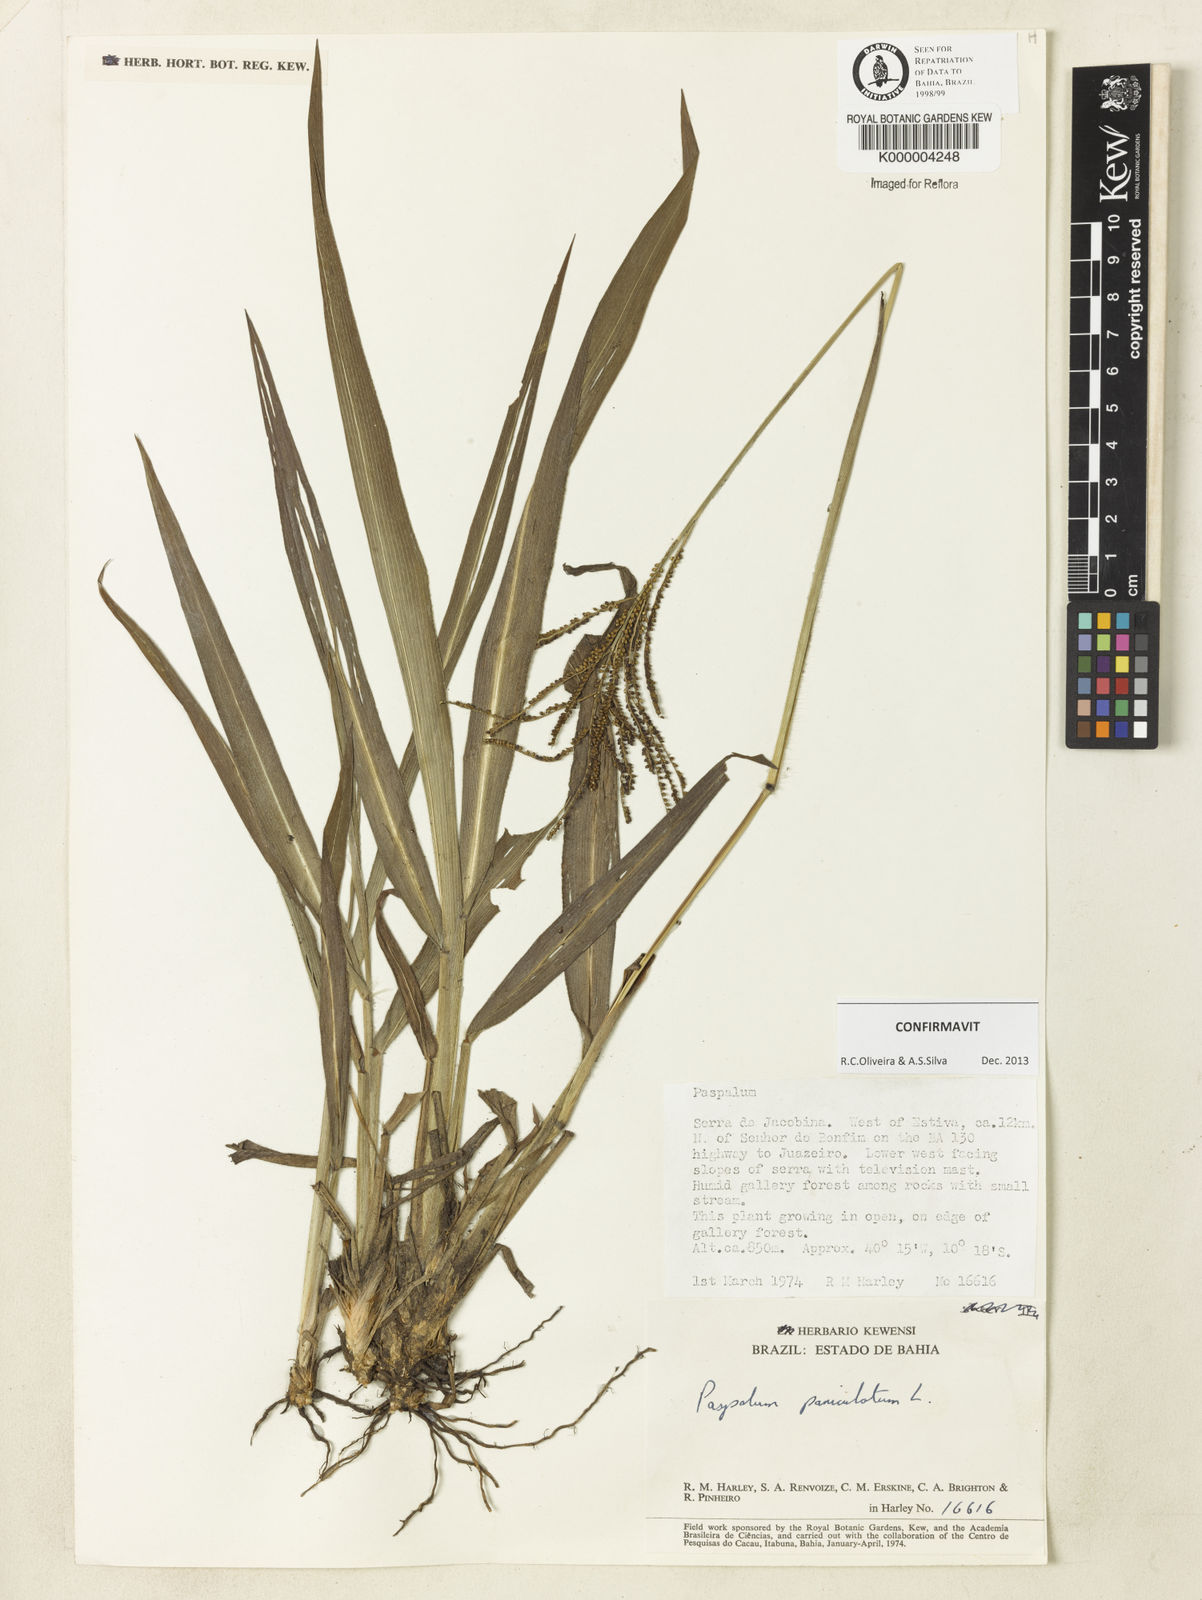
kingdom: Plantae
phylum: Tracheophyta
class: Liliopsida
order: Poales
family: Poaceae
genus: Paspalum
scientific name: Paspalum paniculatum
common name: Arrocillo
